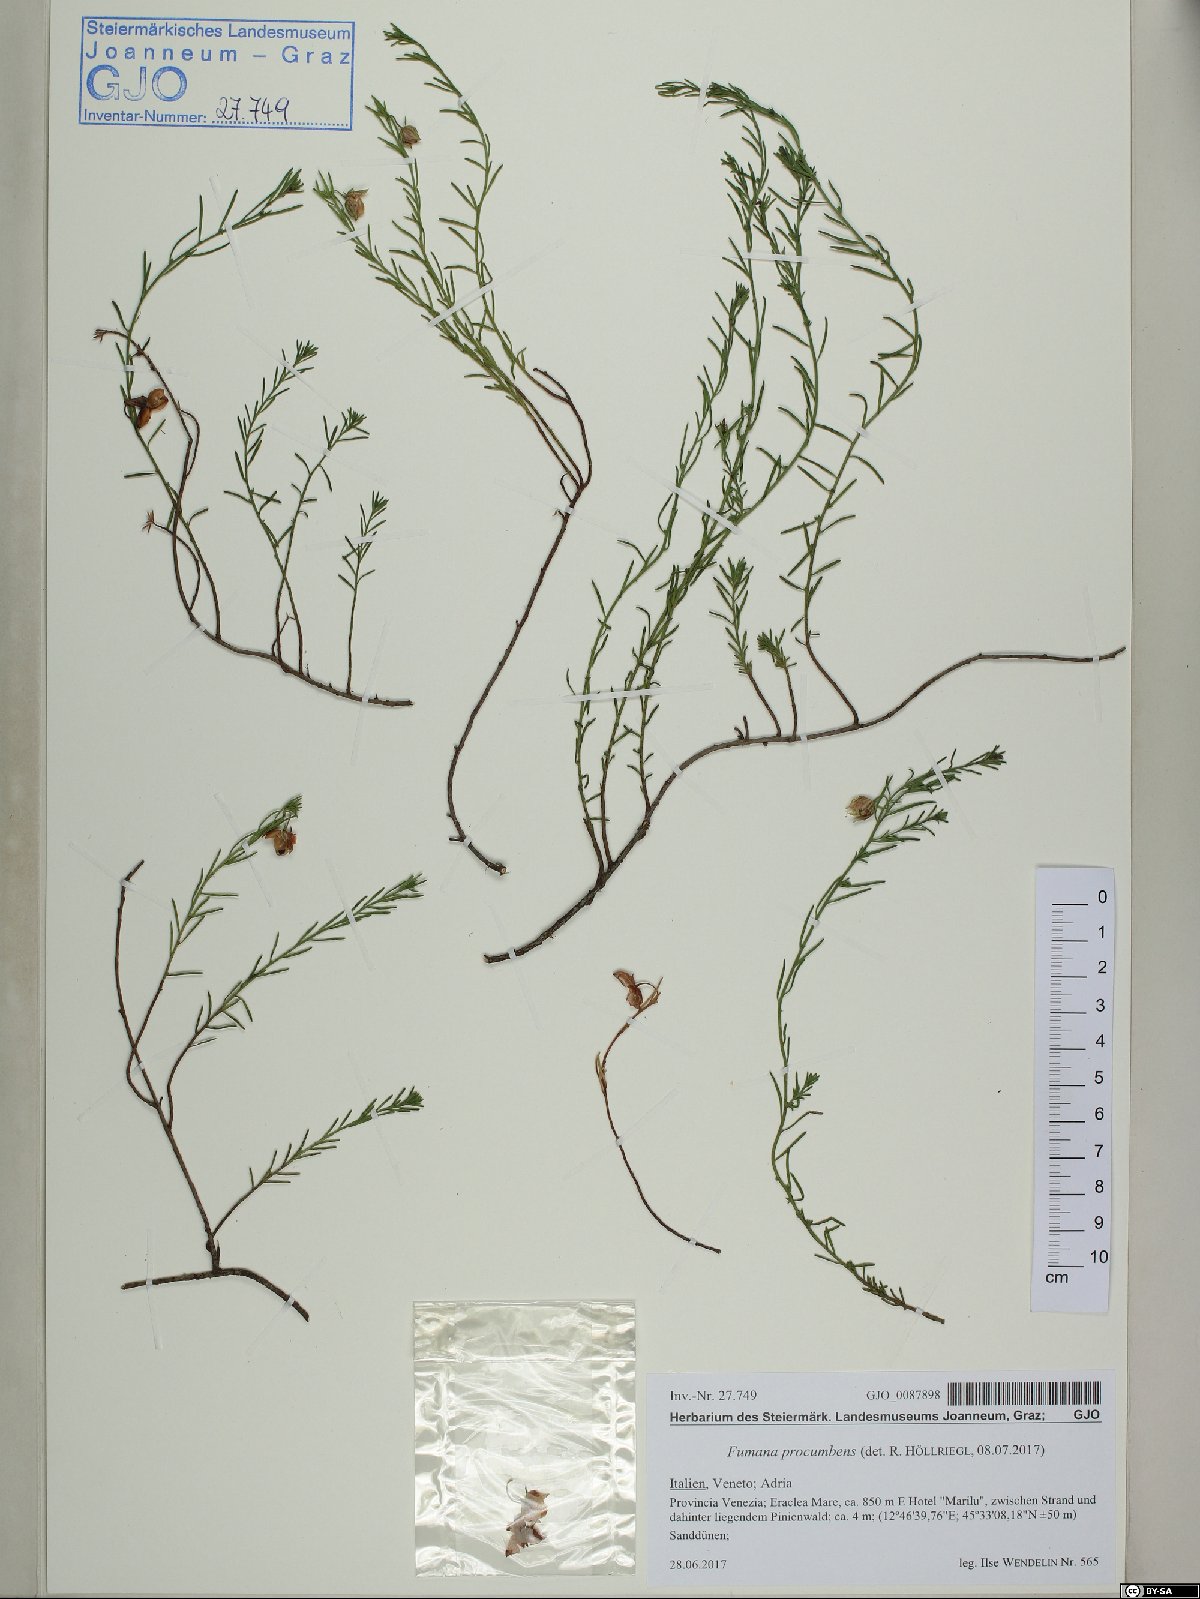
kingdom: Plantae
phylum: Tracheophyta
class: Magnoliopsida
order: Malvales
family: Cistaceae
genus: Fumana
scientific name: Fumana procumbens
